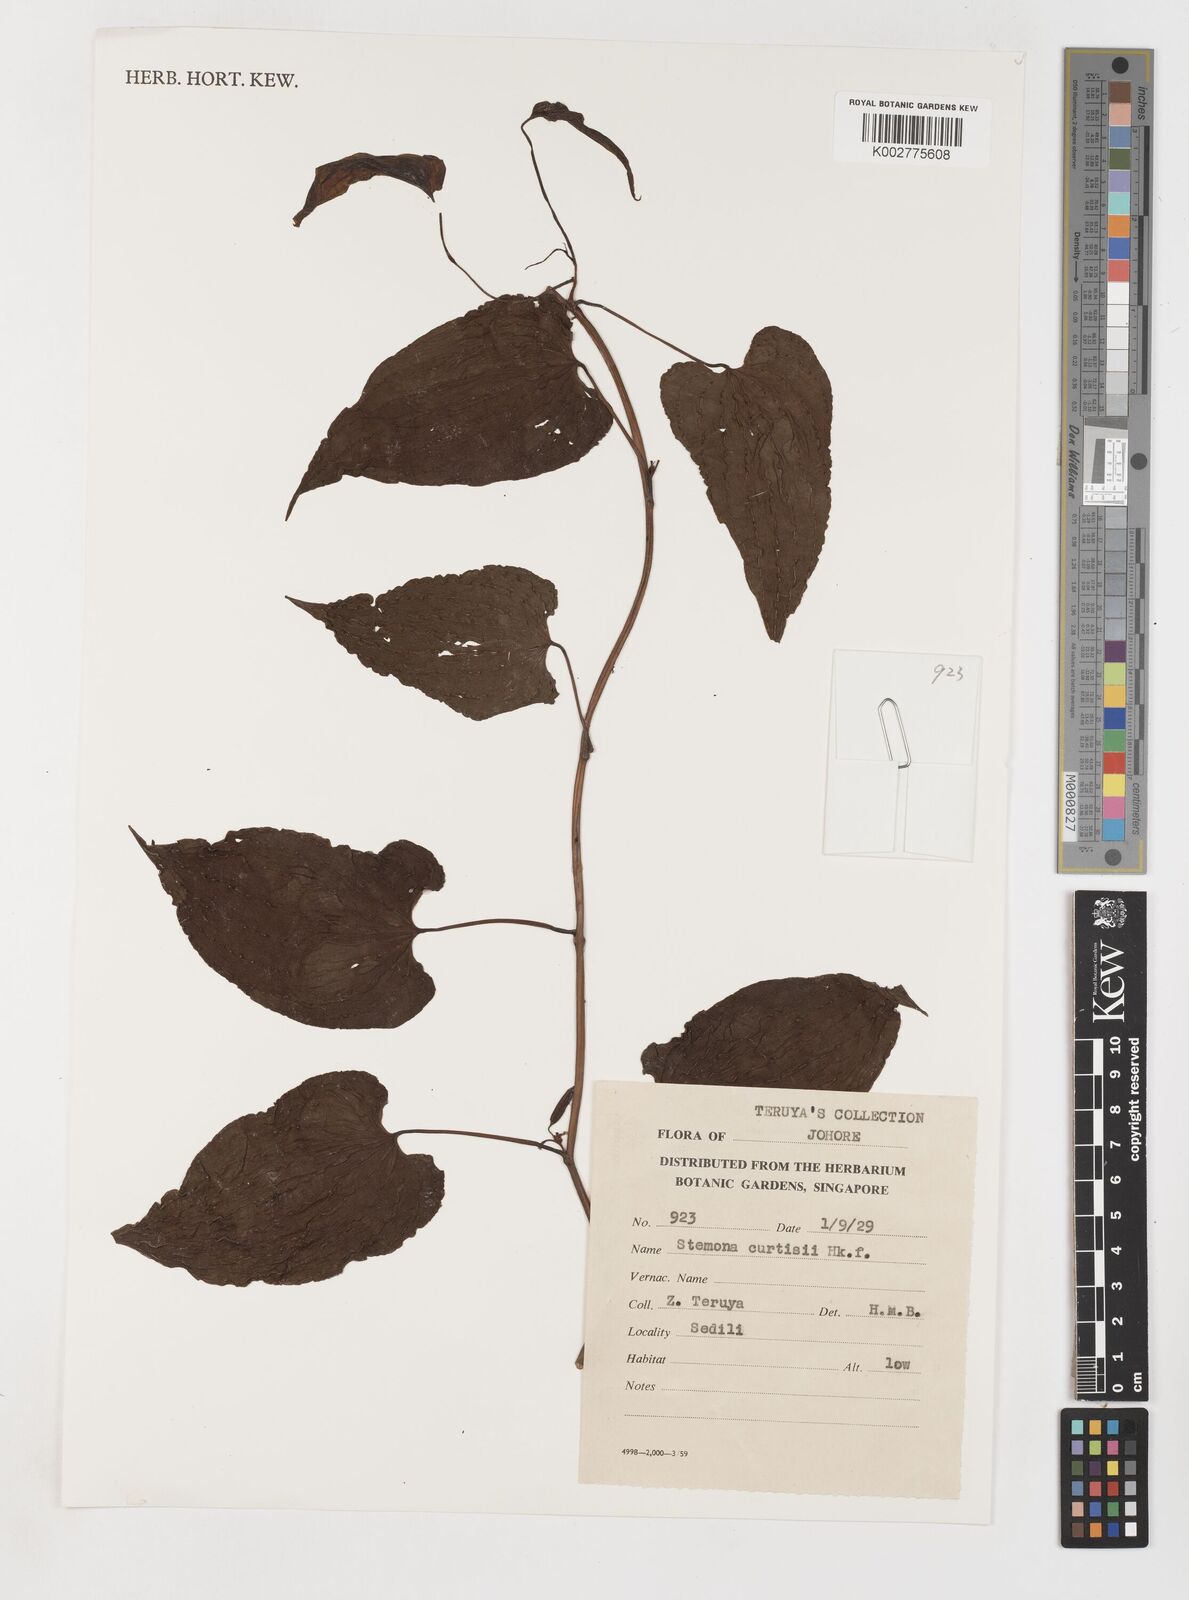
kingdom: Plantae
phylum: Tracheophyta
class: Liliopsida
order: Pandanales
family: Stemonaceae
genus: Stemona
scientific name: Stemona tuberosa
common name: Stemona
